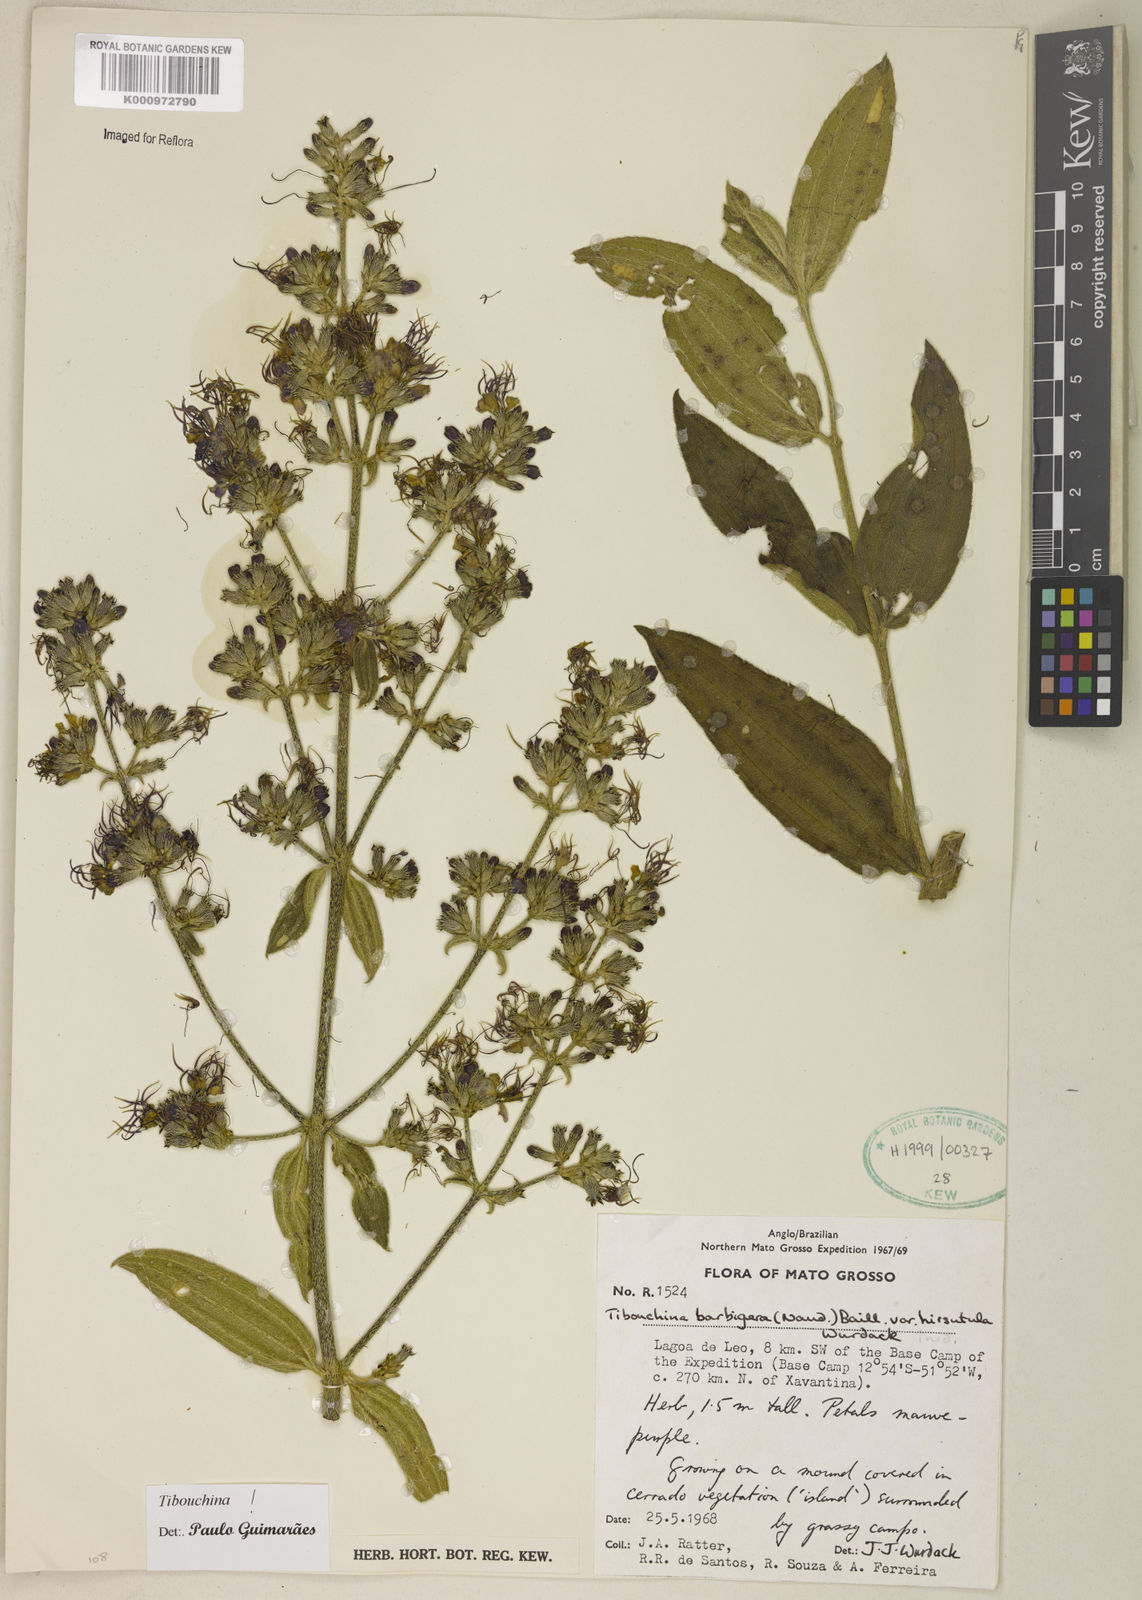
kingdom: Plantae
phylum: Tracheophyta
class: Magnoliopsida
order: Myrtales
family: Melastomataceae
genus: Pleroma
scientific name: Pleroma barbigerum
